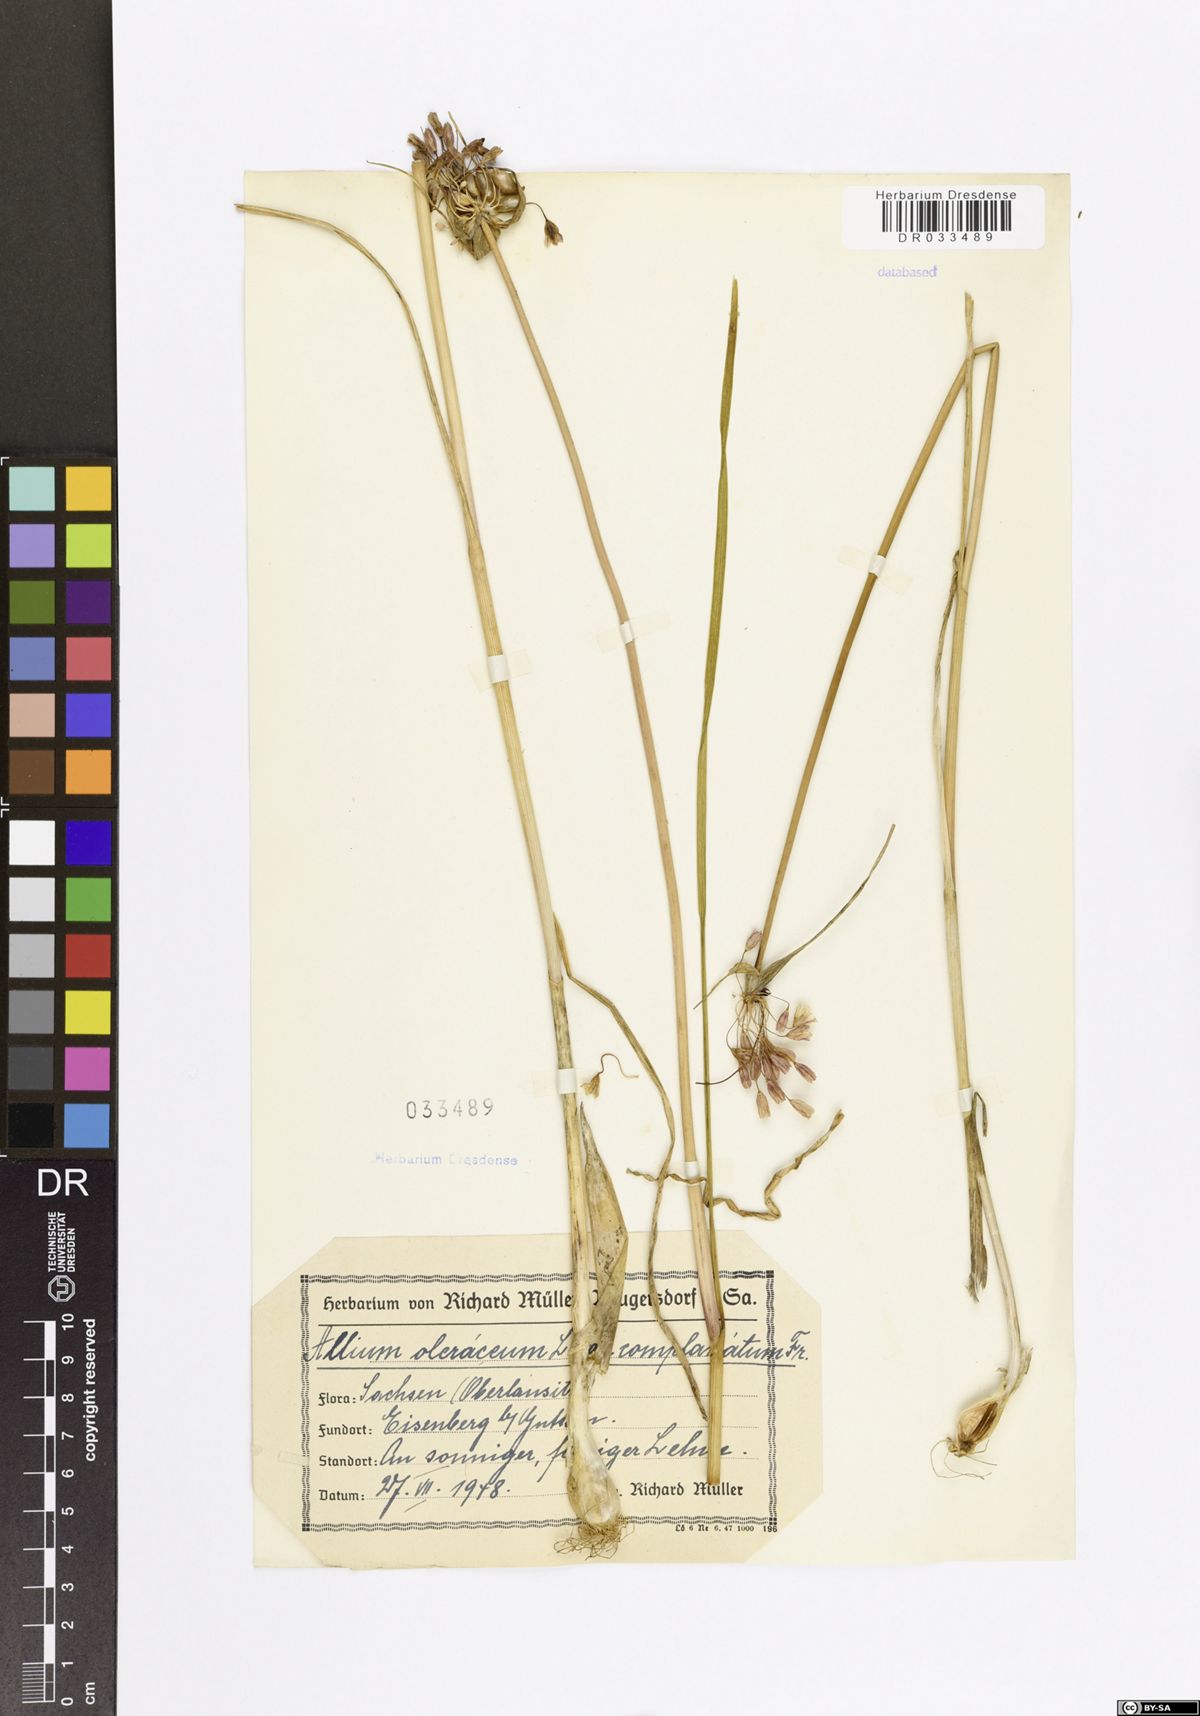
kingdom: Plantae
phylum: Tracheophyta
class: Liliopsida
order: Asparagales
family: Amaryllidaceae
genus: Allium
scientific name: Allium oleraceum
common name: Field garlic
